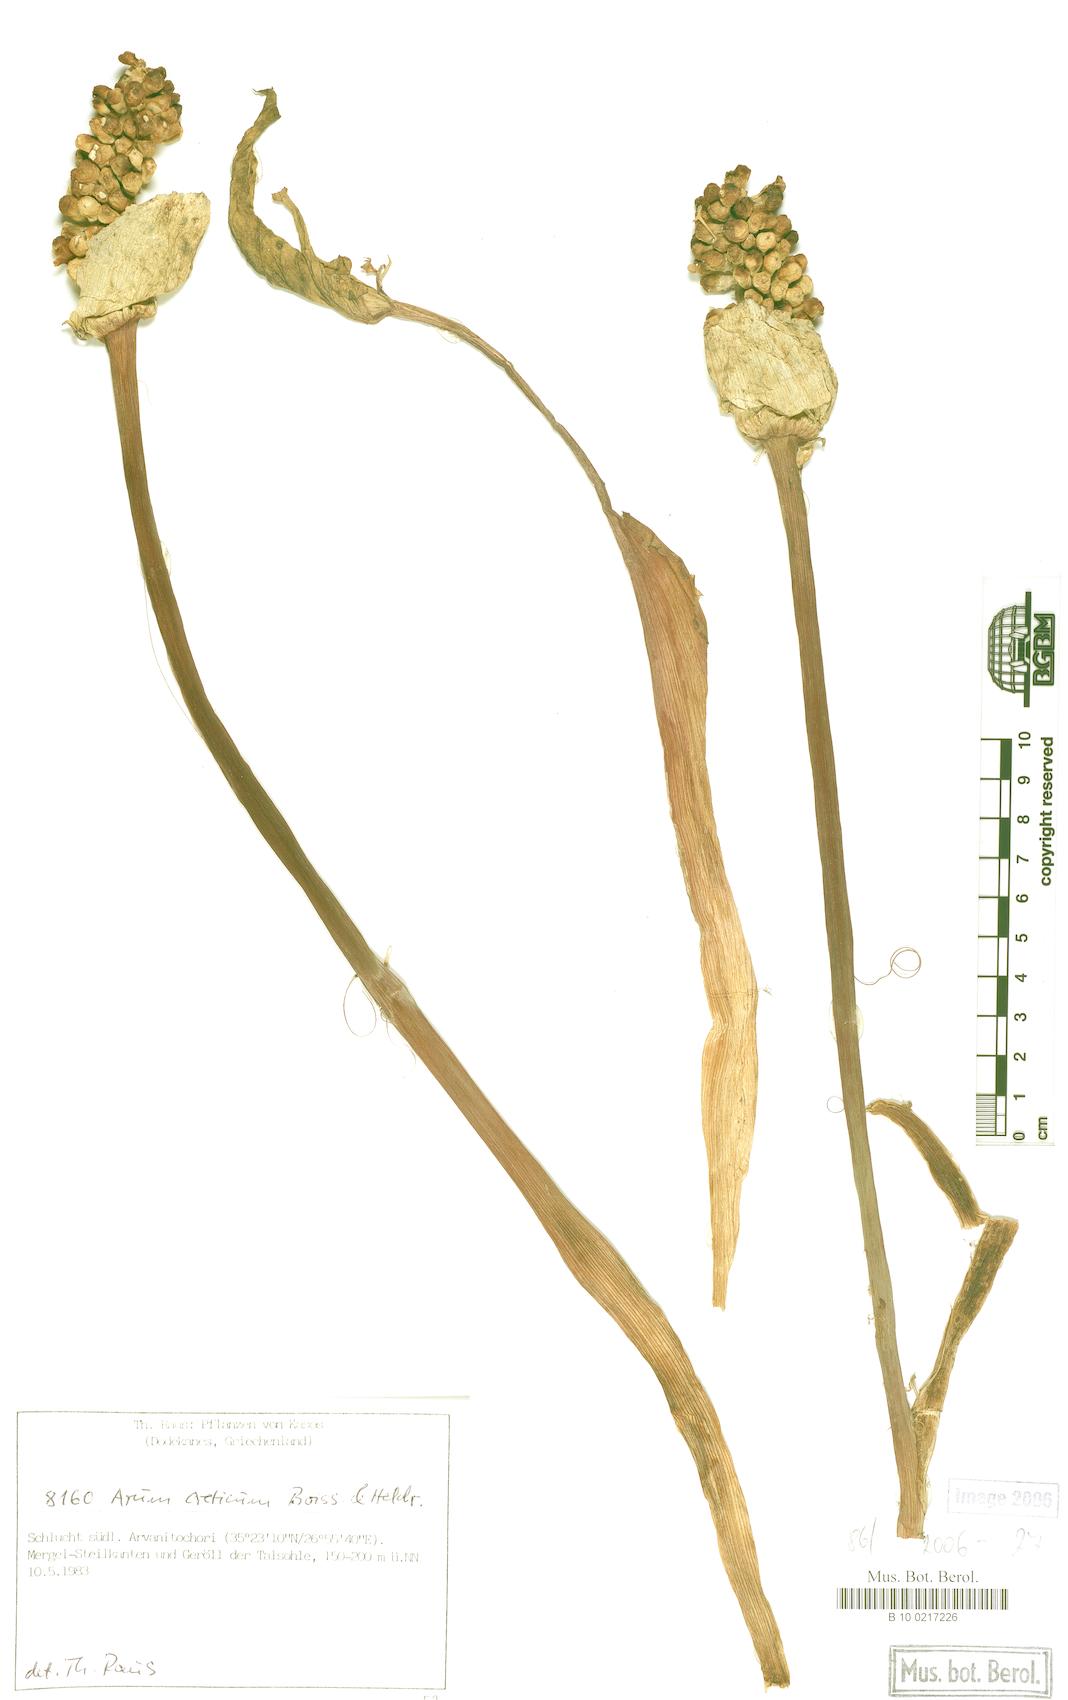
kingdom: Plantae
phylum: Tracheophyta
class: Liliopsida
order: Alismatales
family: Araceae
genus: Arum
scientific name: Arum creticum
